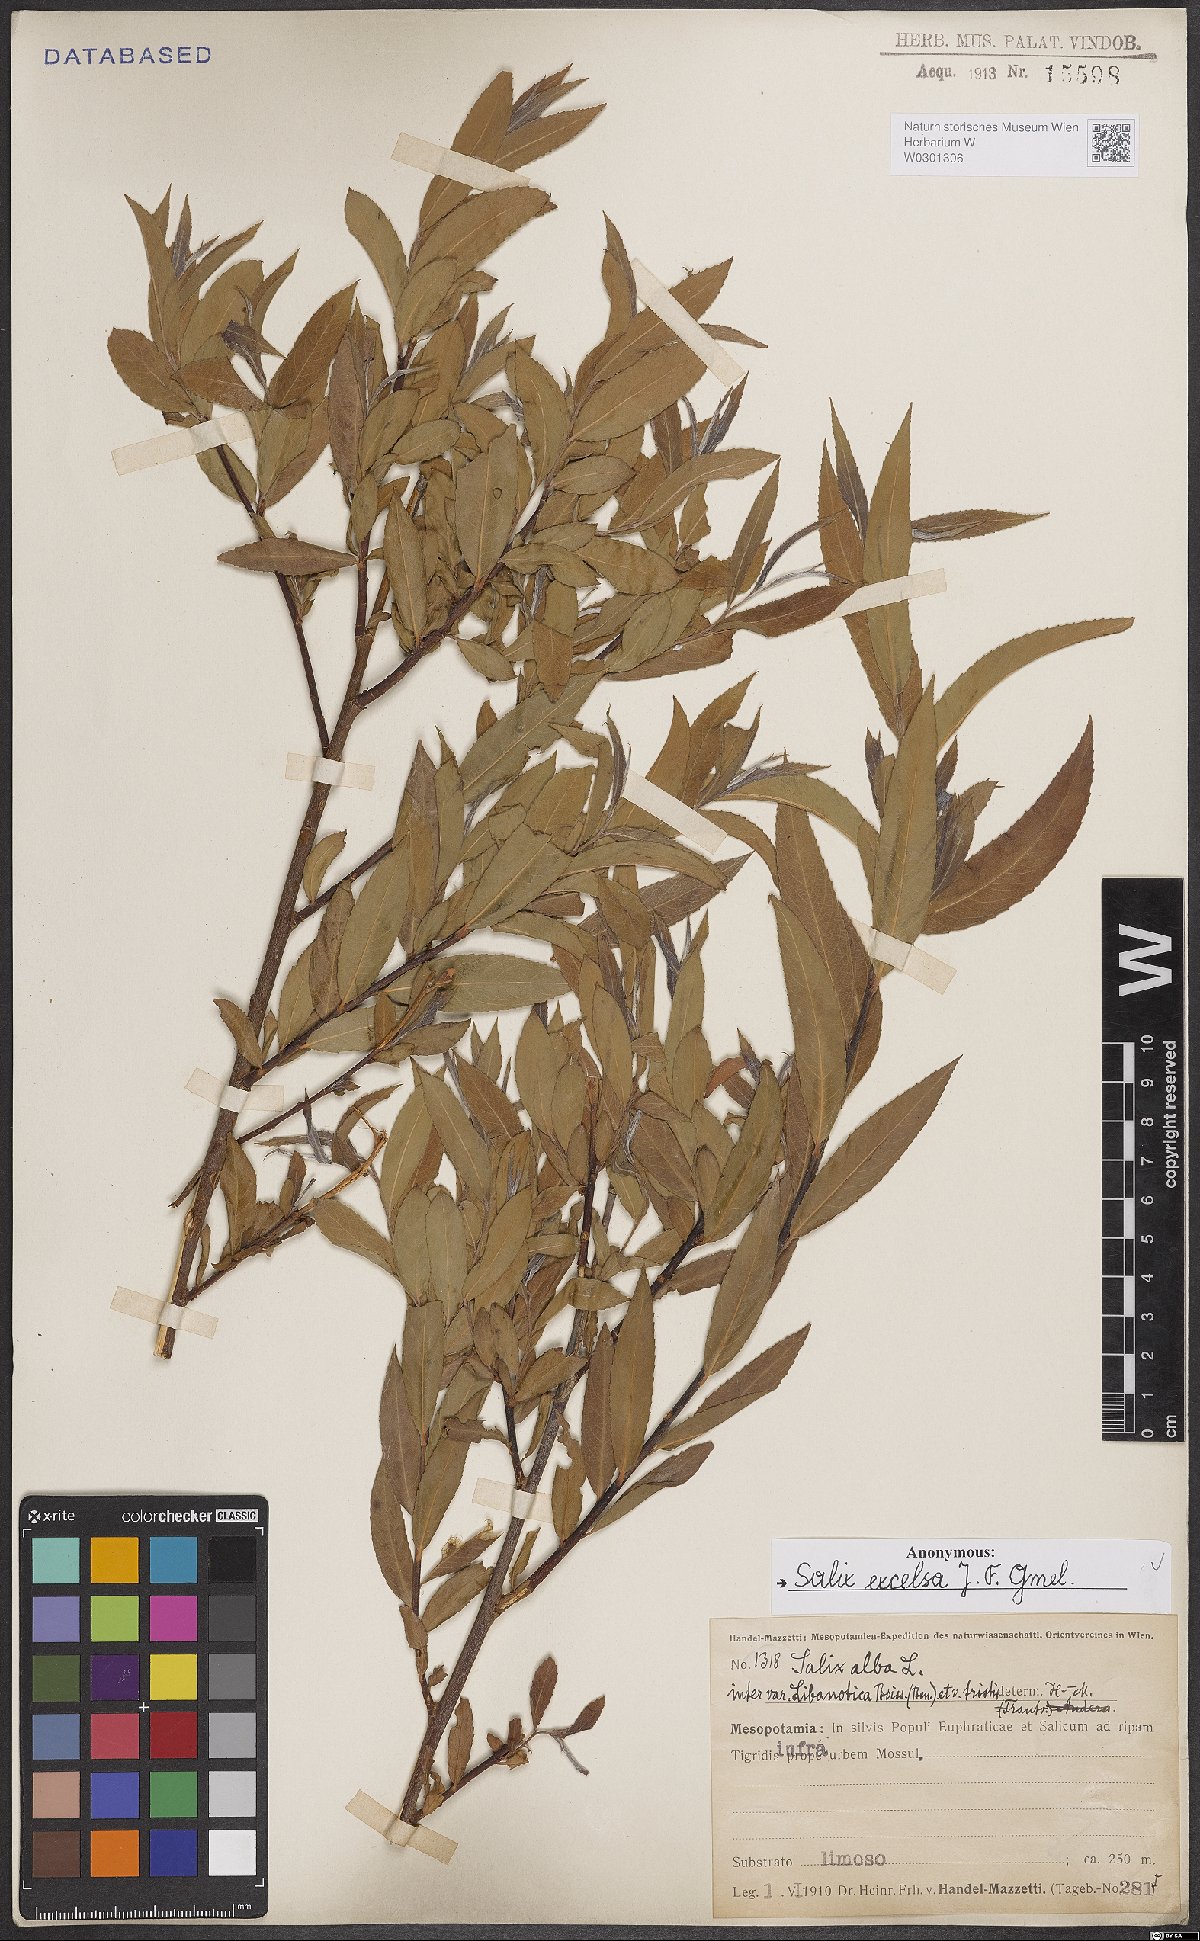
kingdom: Plantae
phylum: Tracheophyta
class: Magnoliopsida
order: Malpighiales
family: Salicaceae
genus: Salix
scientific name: Salix excelsa
